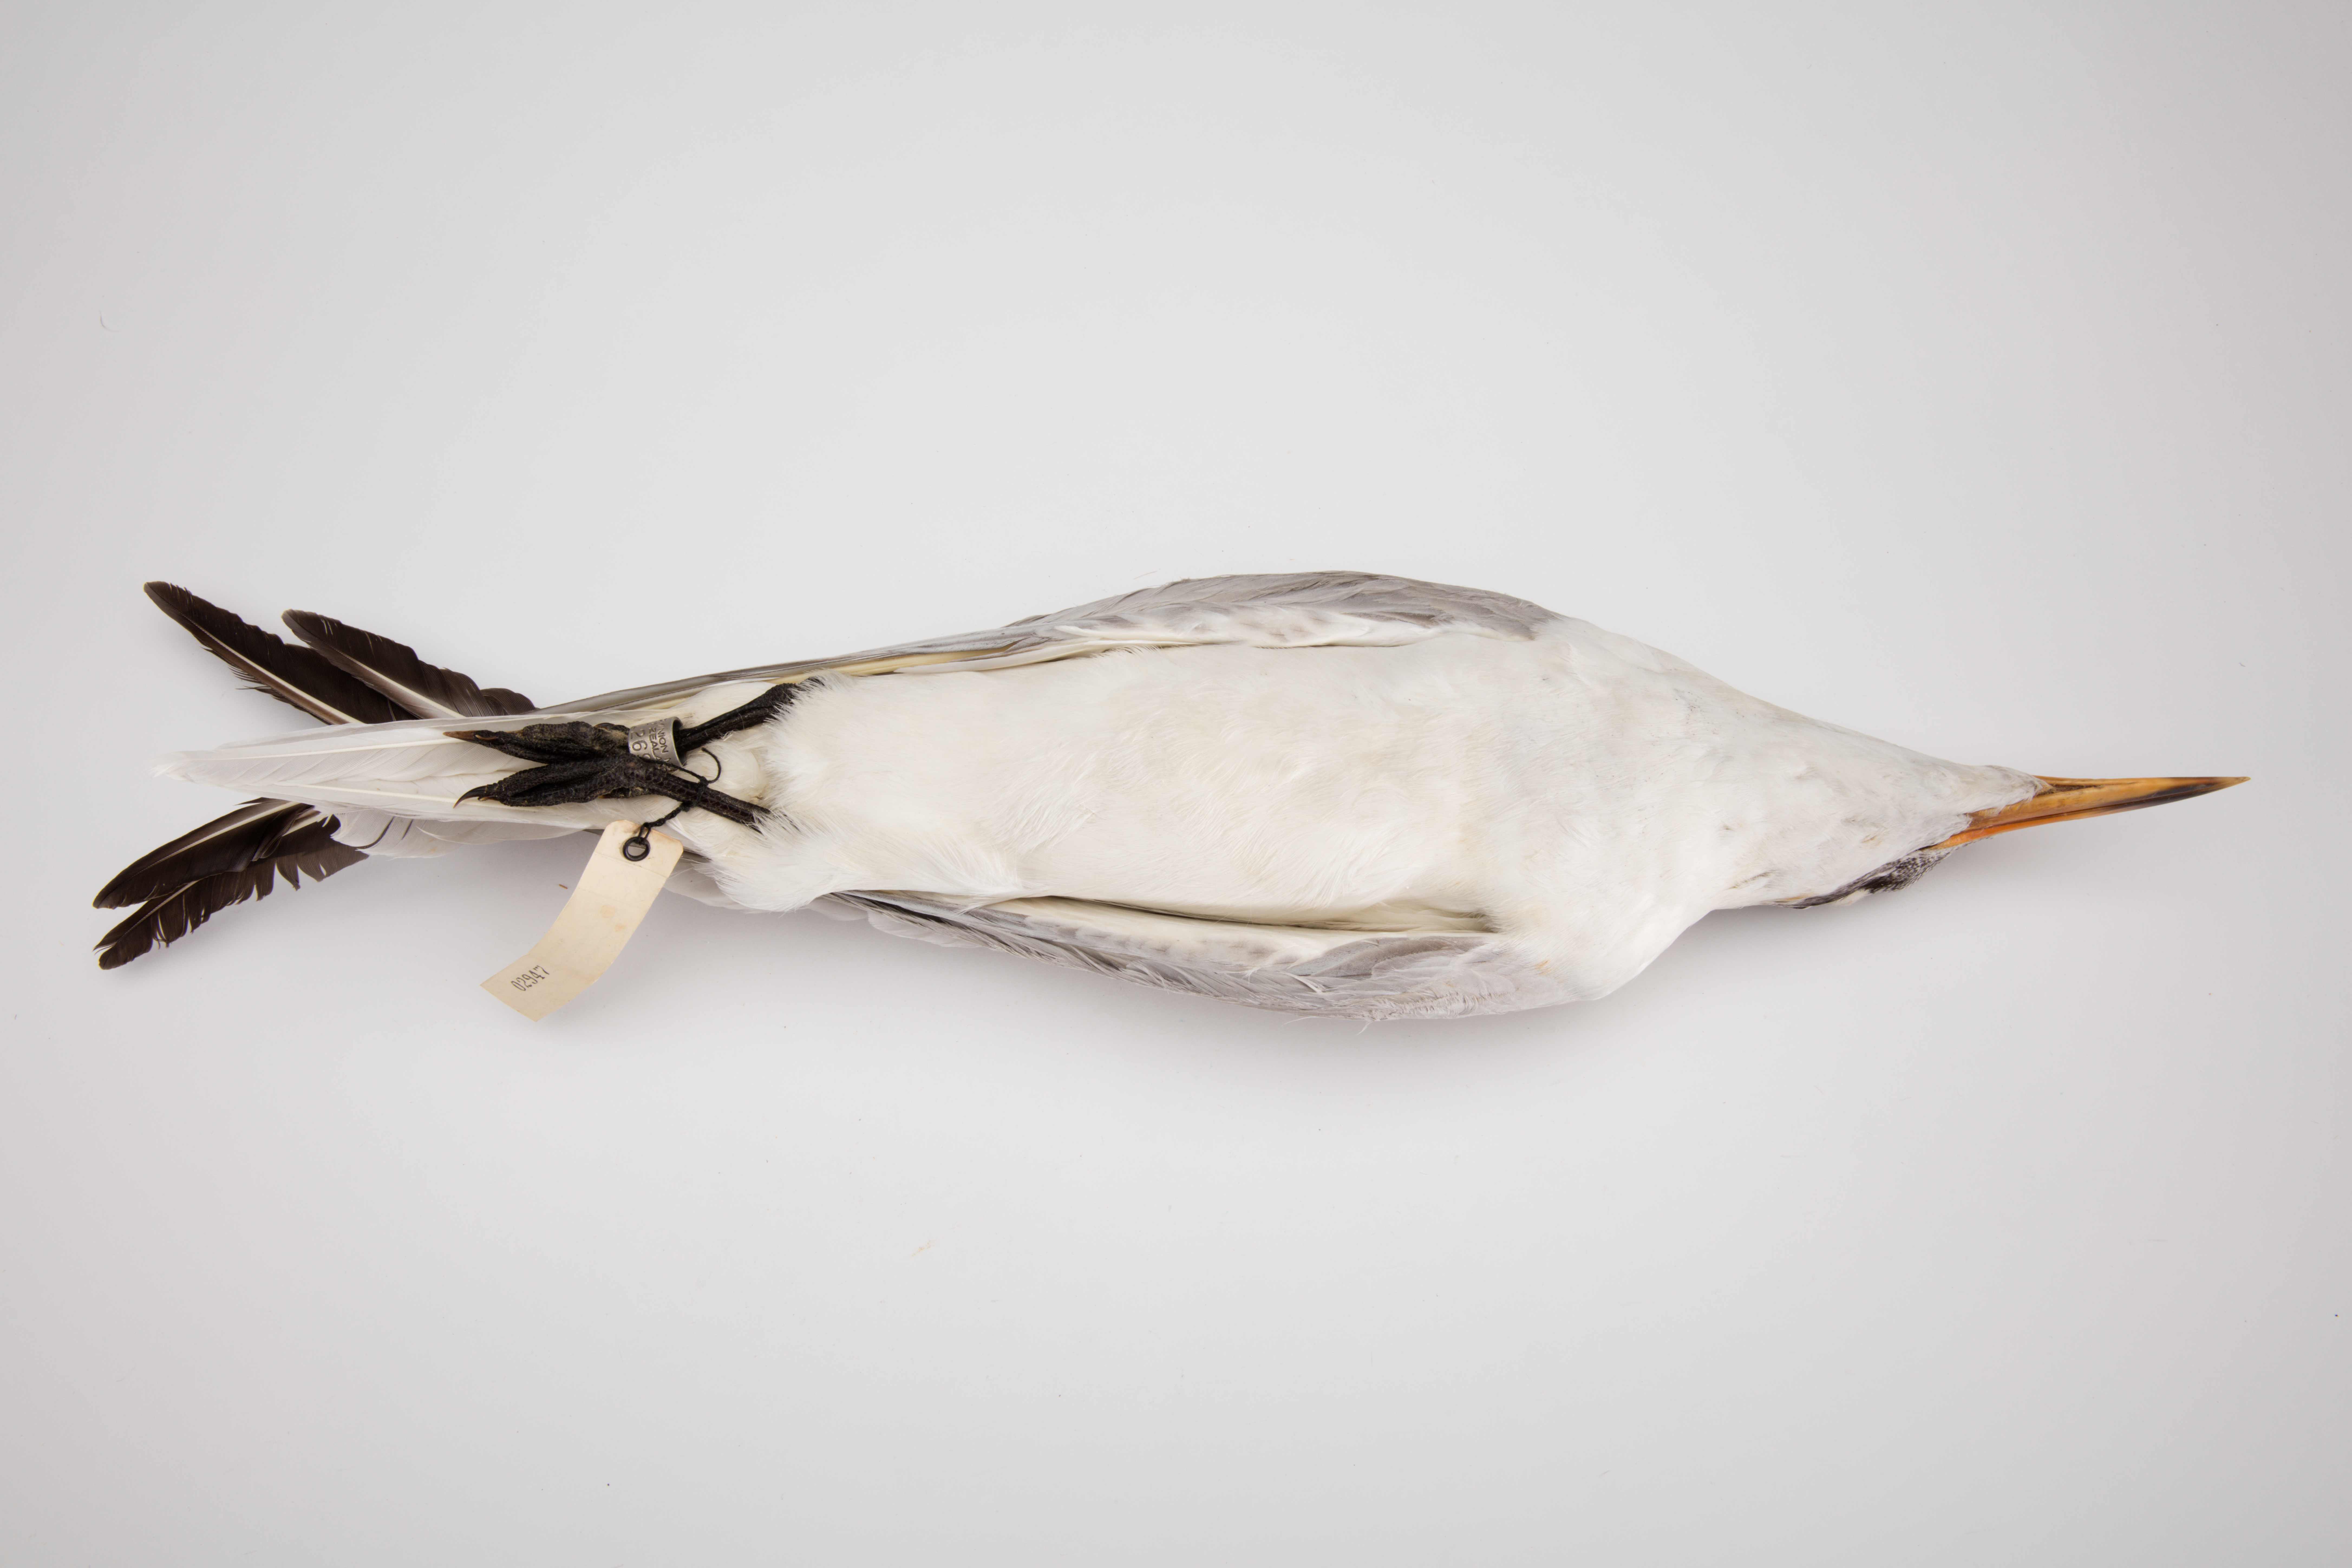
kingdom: Animalia
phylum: Chordata
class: Aves
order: Charadriiformes
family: Laridae
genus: Hydroprogne
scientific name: Hydroprogne caspia
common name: Caspian tern
